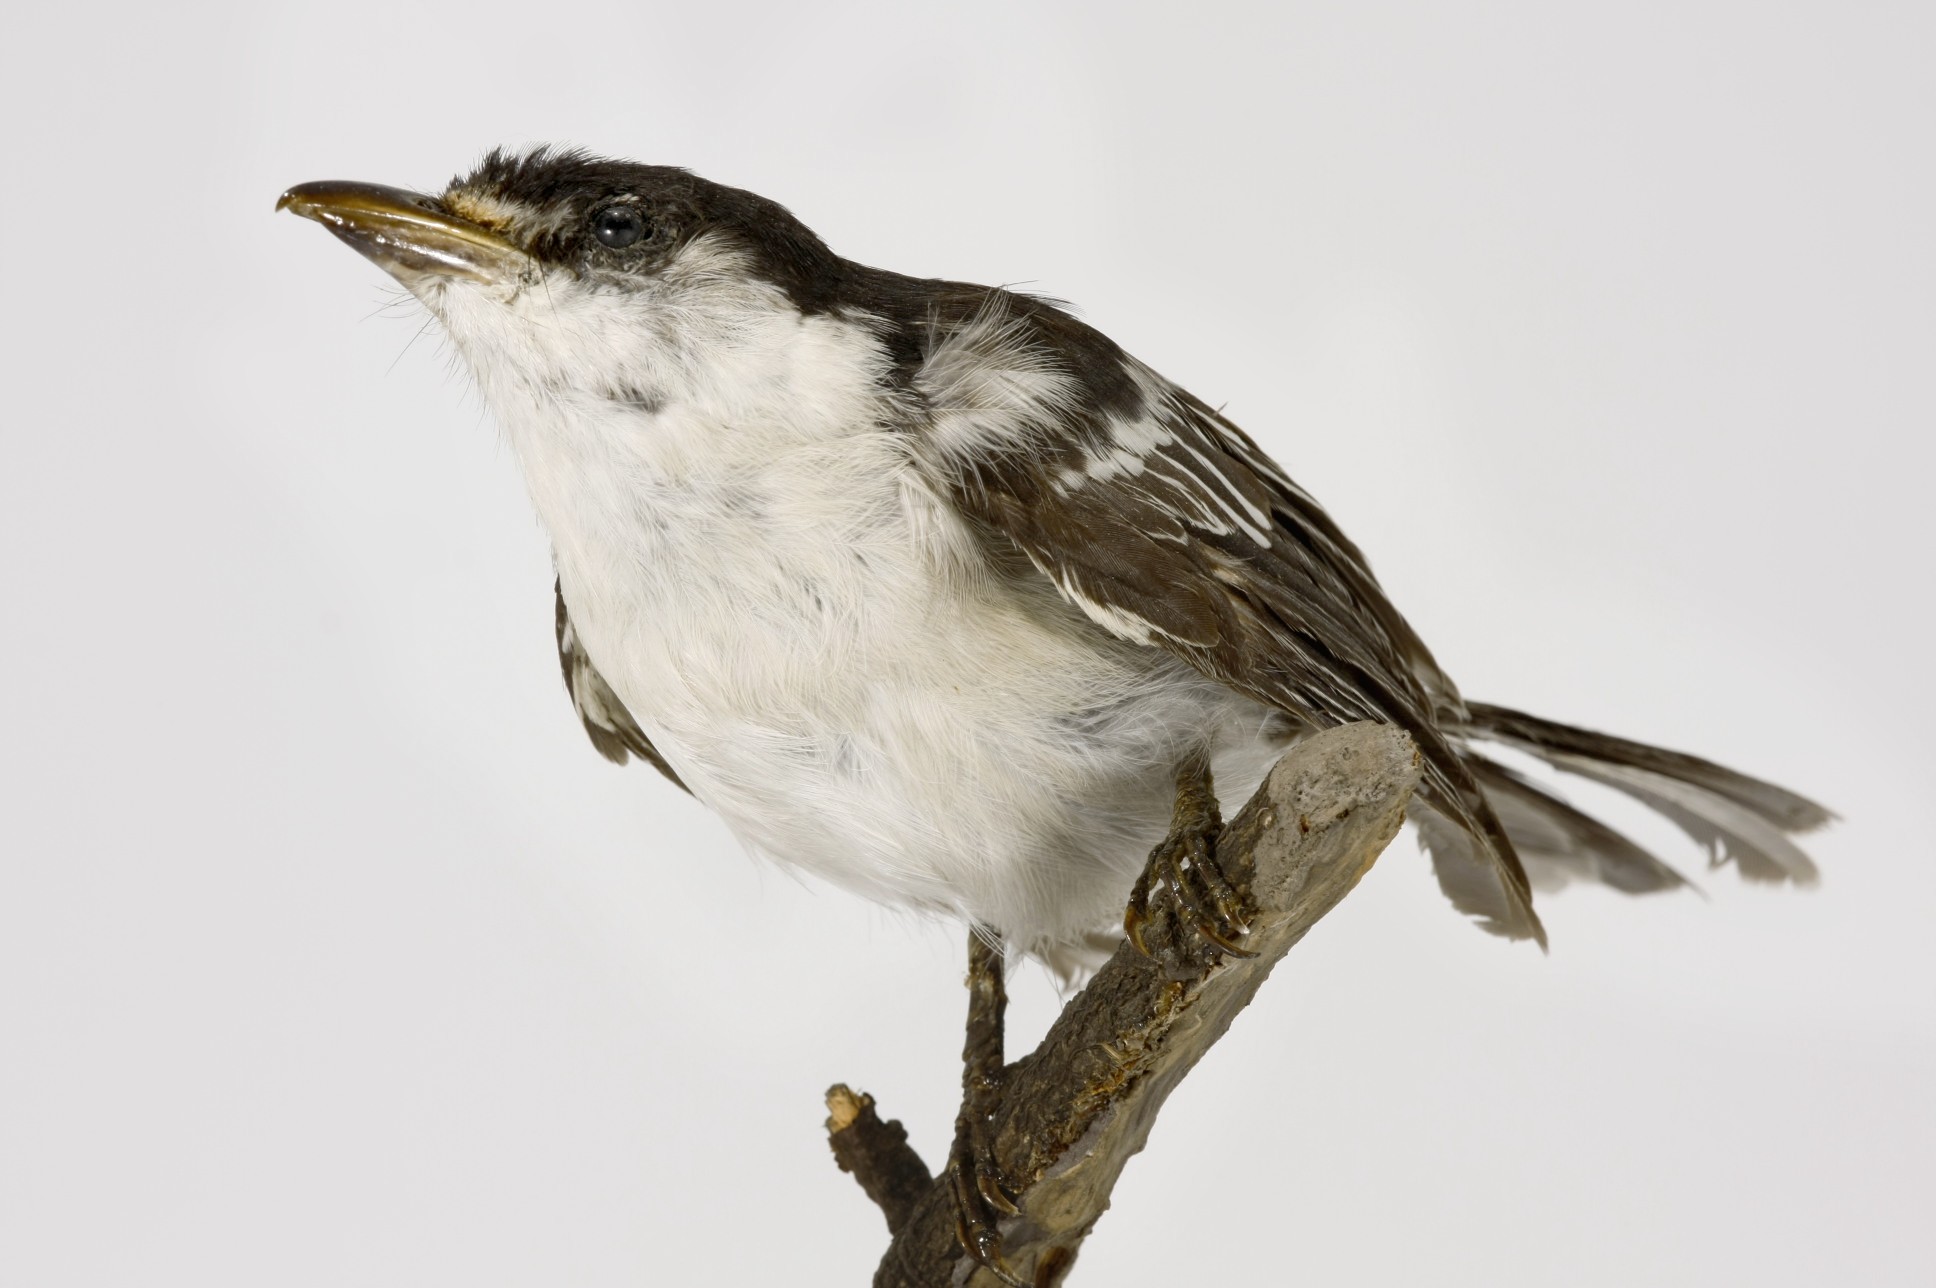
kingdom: Animalia
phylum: Chordata
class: Aves
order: Passeriformes
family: Malaconotidae
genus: Dryoscopus
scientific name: Dryoscopus cubla
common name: Black-backed puffback
